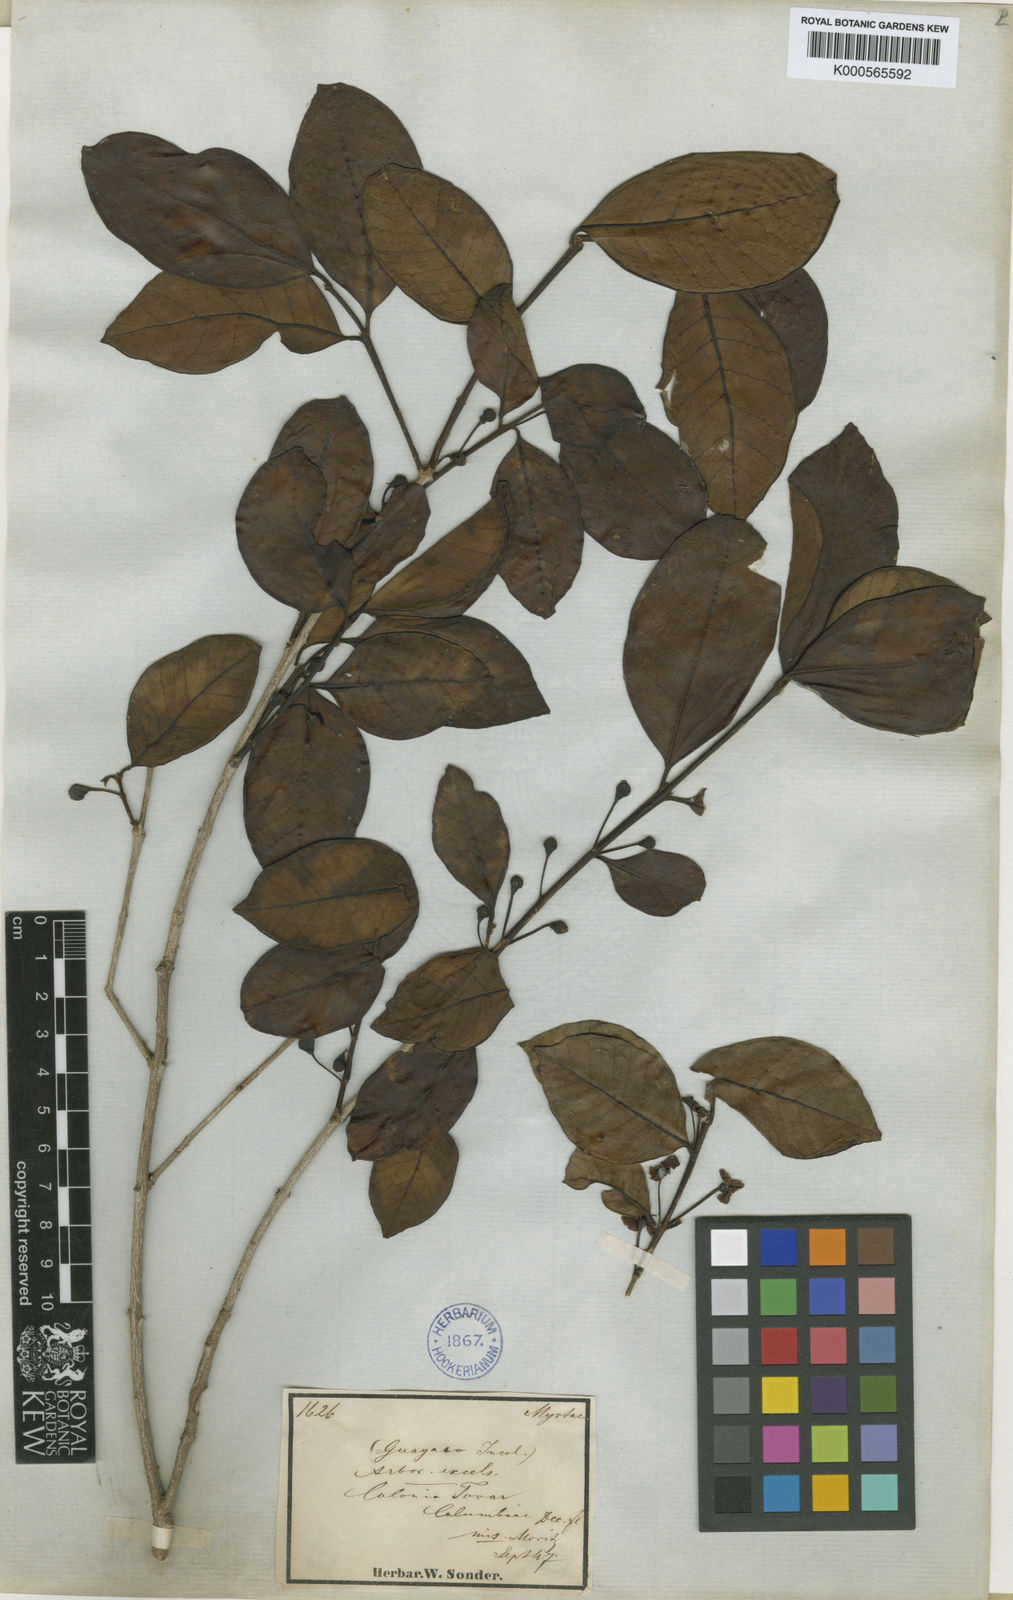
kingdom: Plantae
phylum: Tracheophyta
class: Magnoliopsida
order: Myrtales
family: Myrtaceae
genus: Psidium
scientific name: Psidium brownianum
